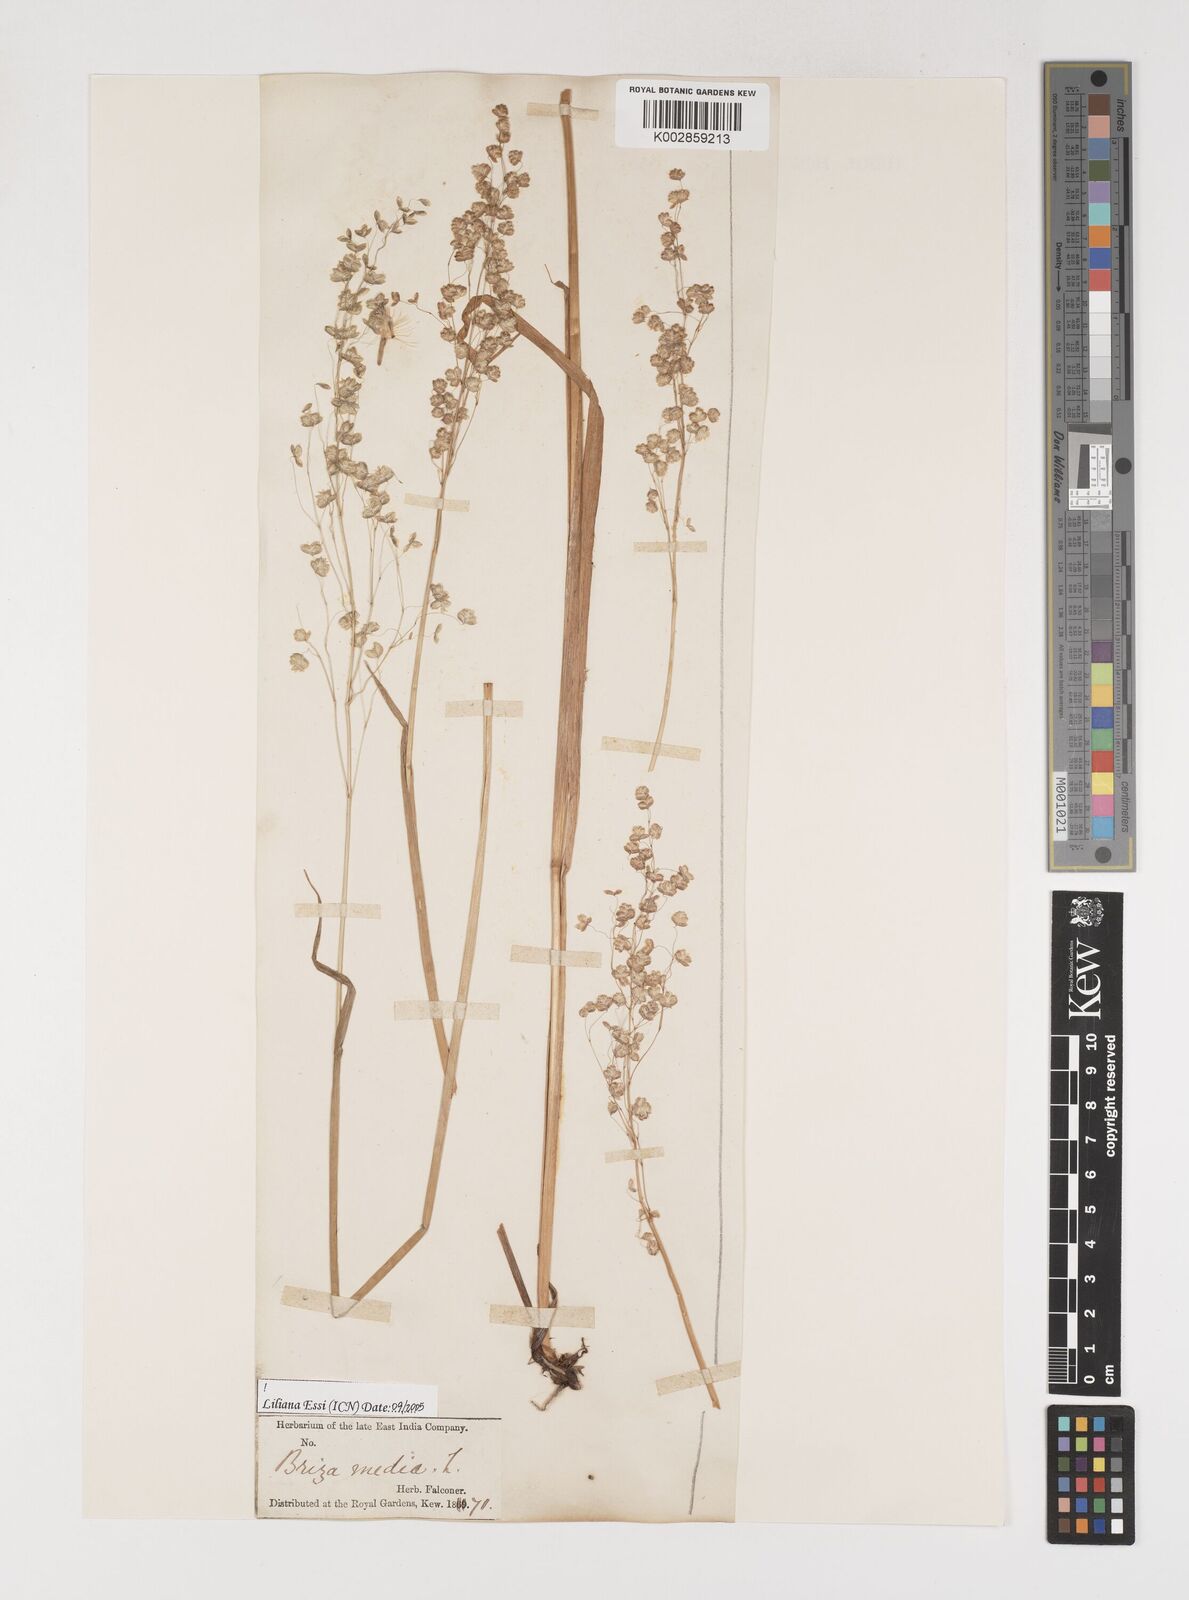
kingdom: Plantae
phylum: Tracheophyta
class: Liliopsida
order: Poales
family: Poaceae
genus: Briza
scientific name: Briza media
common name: Quaking grass
